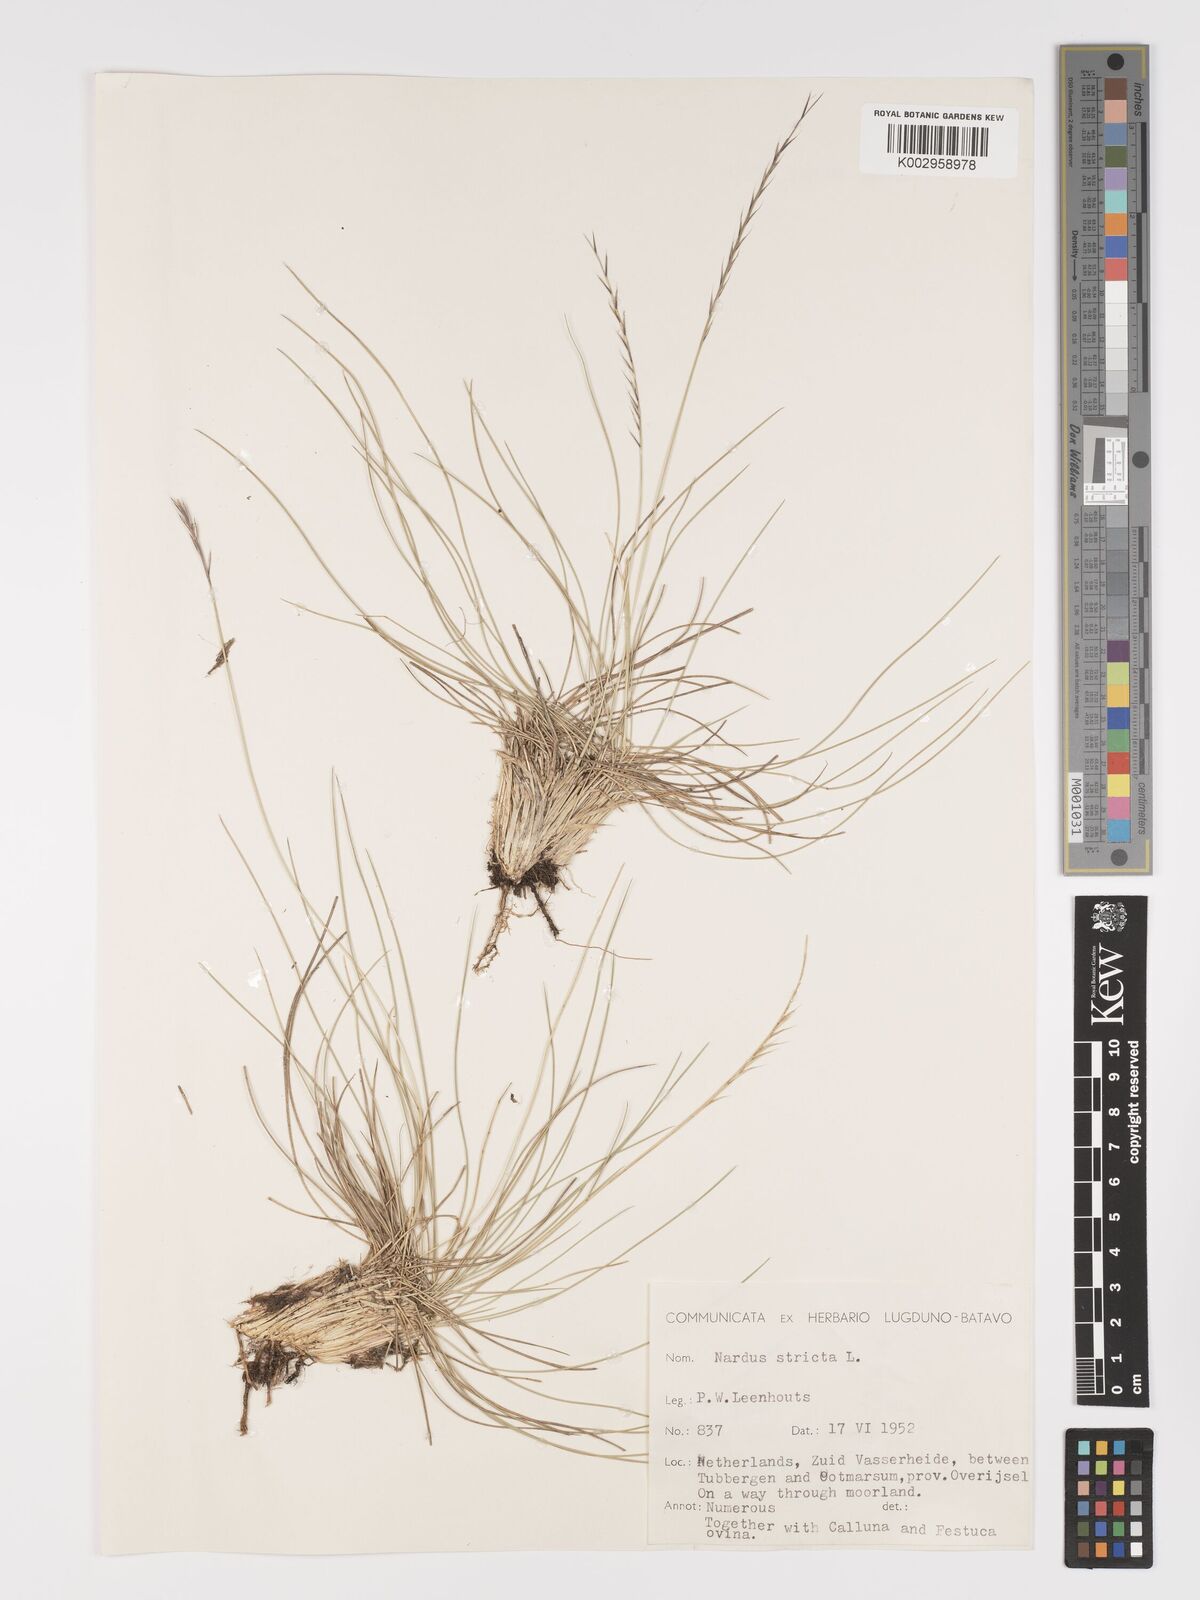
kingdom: Plantae
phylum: Tracheophyta
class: Liliopsida
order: Poales
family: Poaceae
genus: Nardus
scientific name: Nardus stricta
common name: Mat-grass
